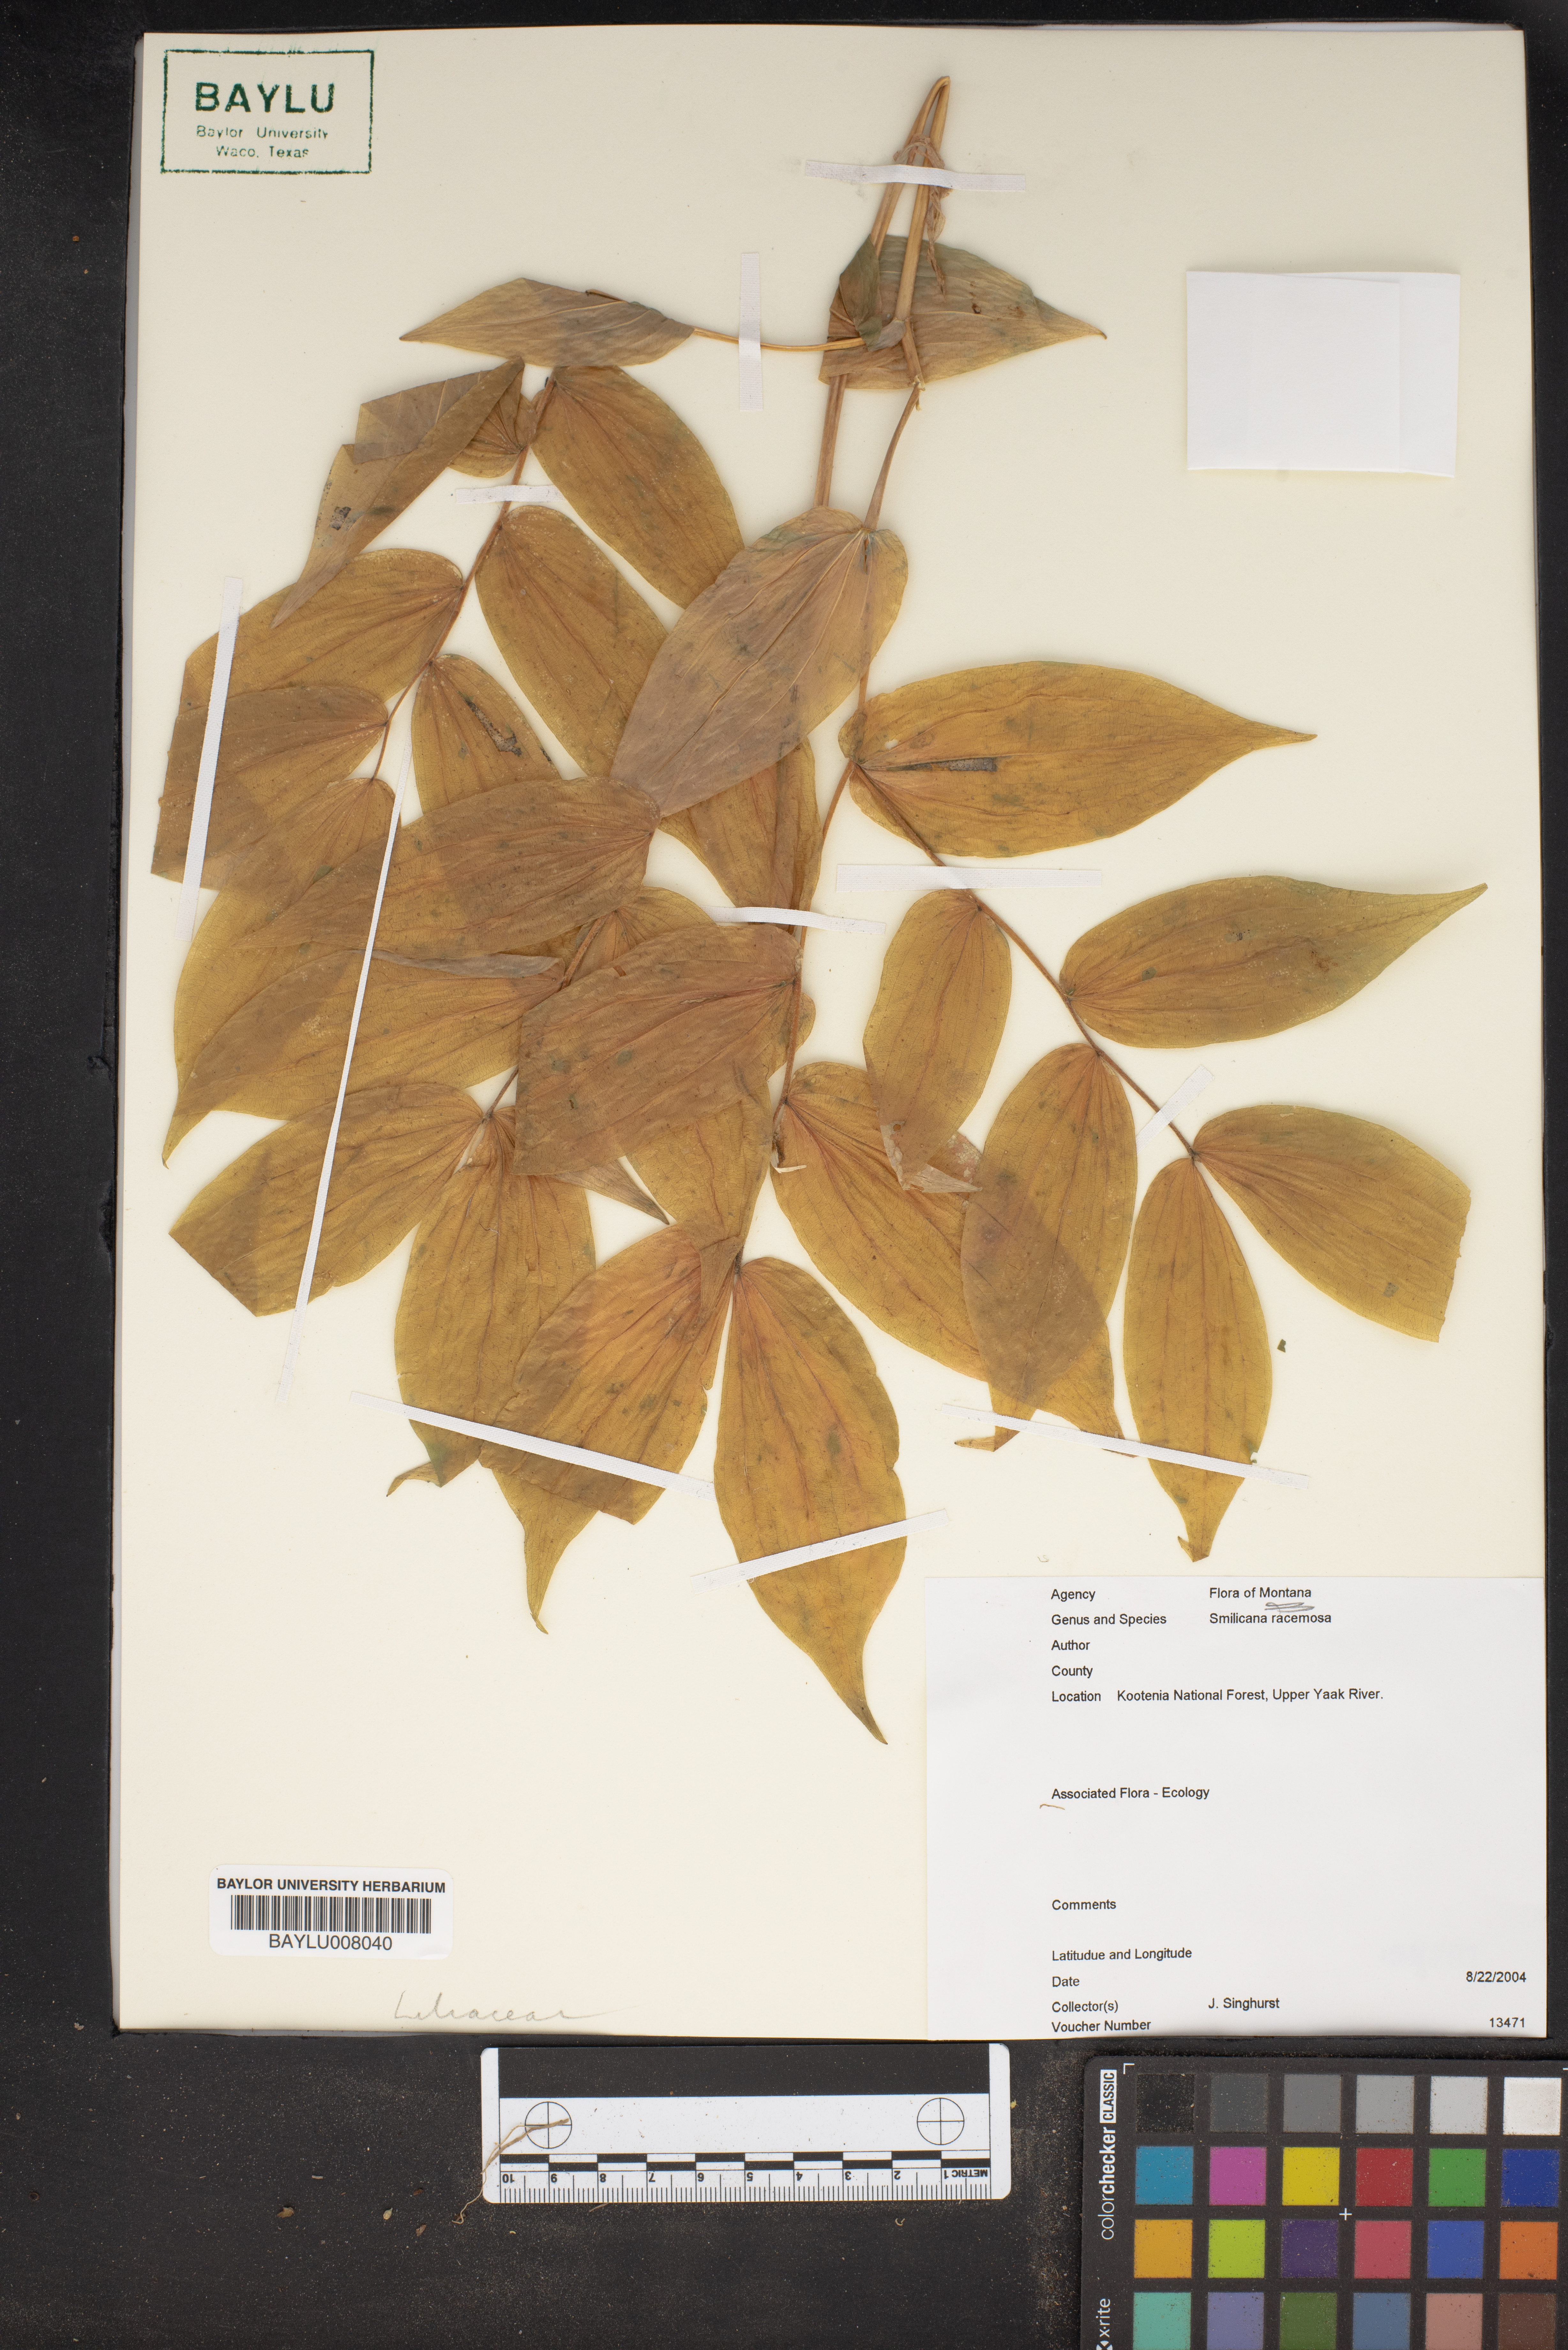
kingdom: Plantae
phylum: Tracheophyta
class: Liliopsida
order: Asparagales
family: Asparagaceae
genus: Maianthemum
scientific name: Maianthemum racemosum
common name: False spikenard
